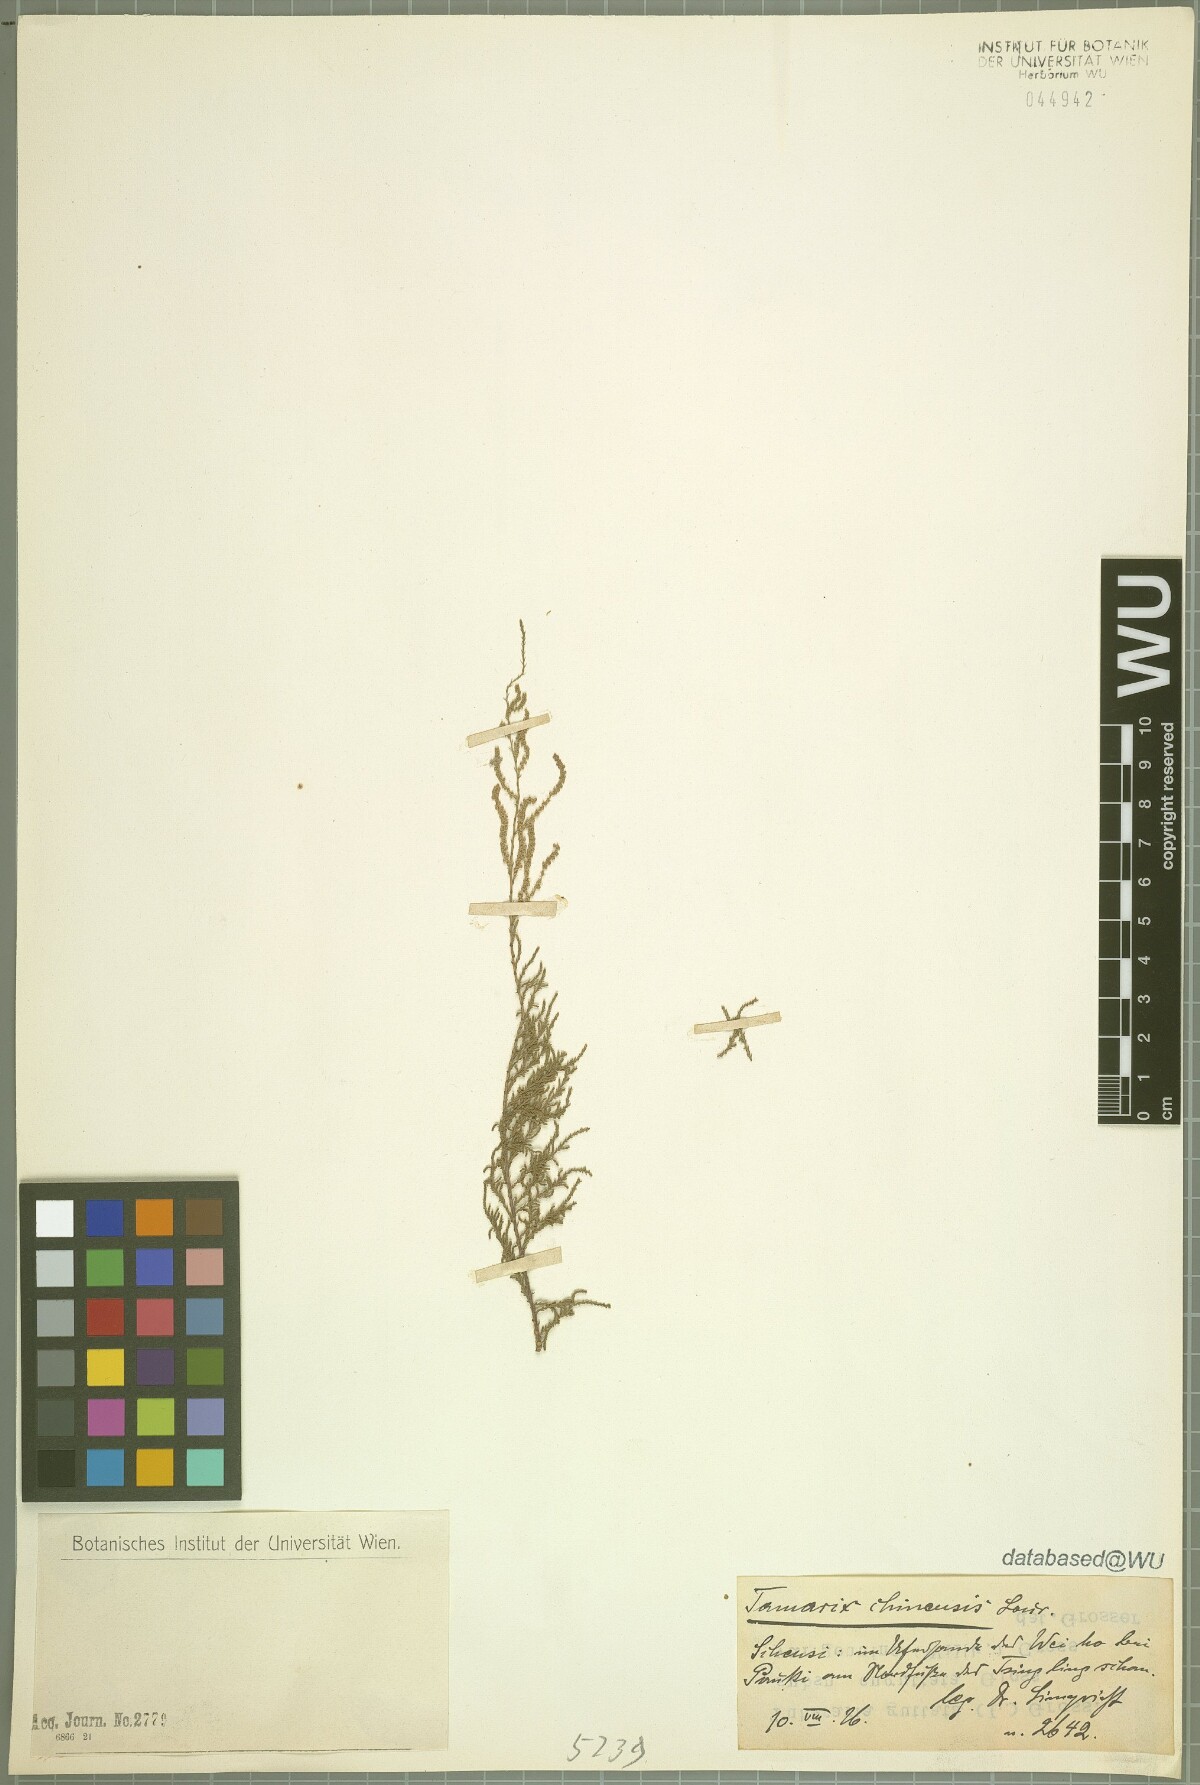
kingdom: Plantae
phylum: Tracheophyta
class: Magnoliopsida
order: Caryophyllales
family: Tamaricaceae
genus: Tamarix
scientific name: Tamarix chinensis
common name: Chinese tamarisk
